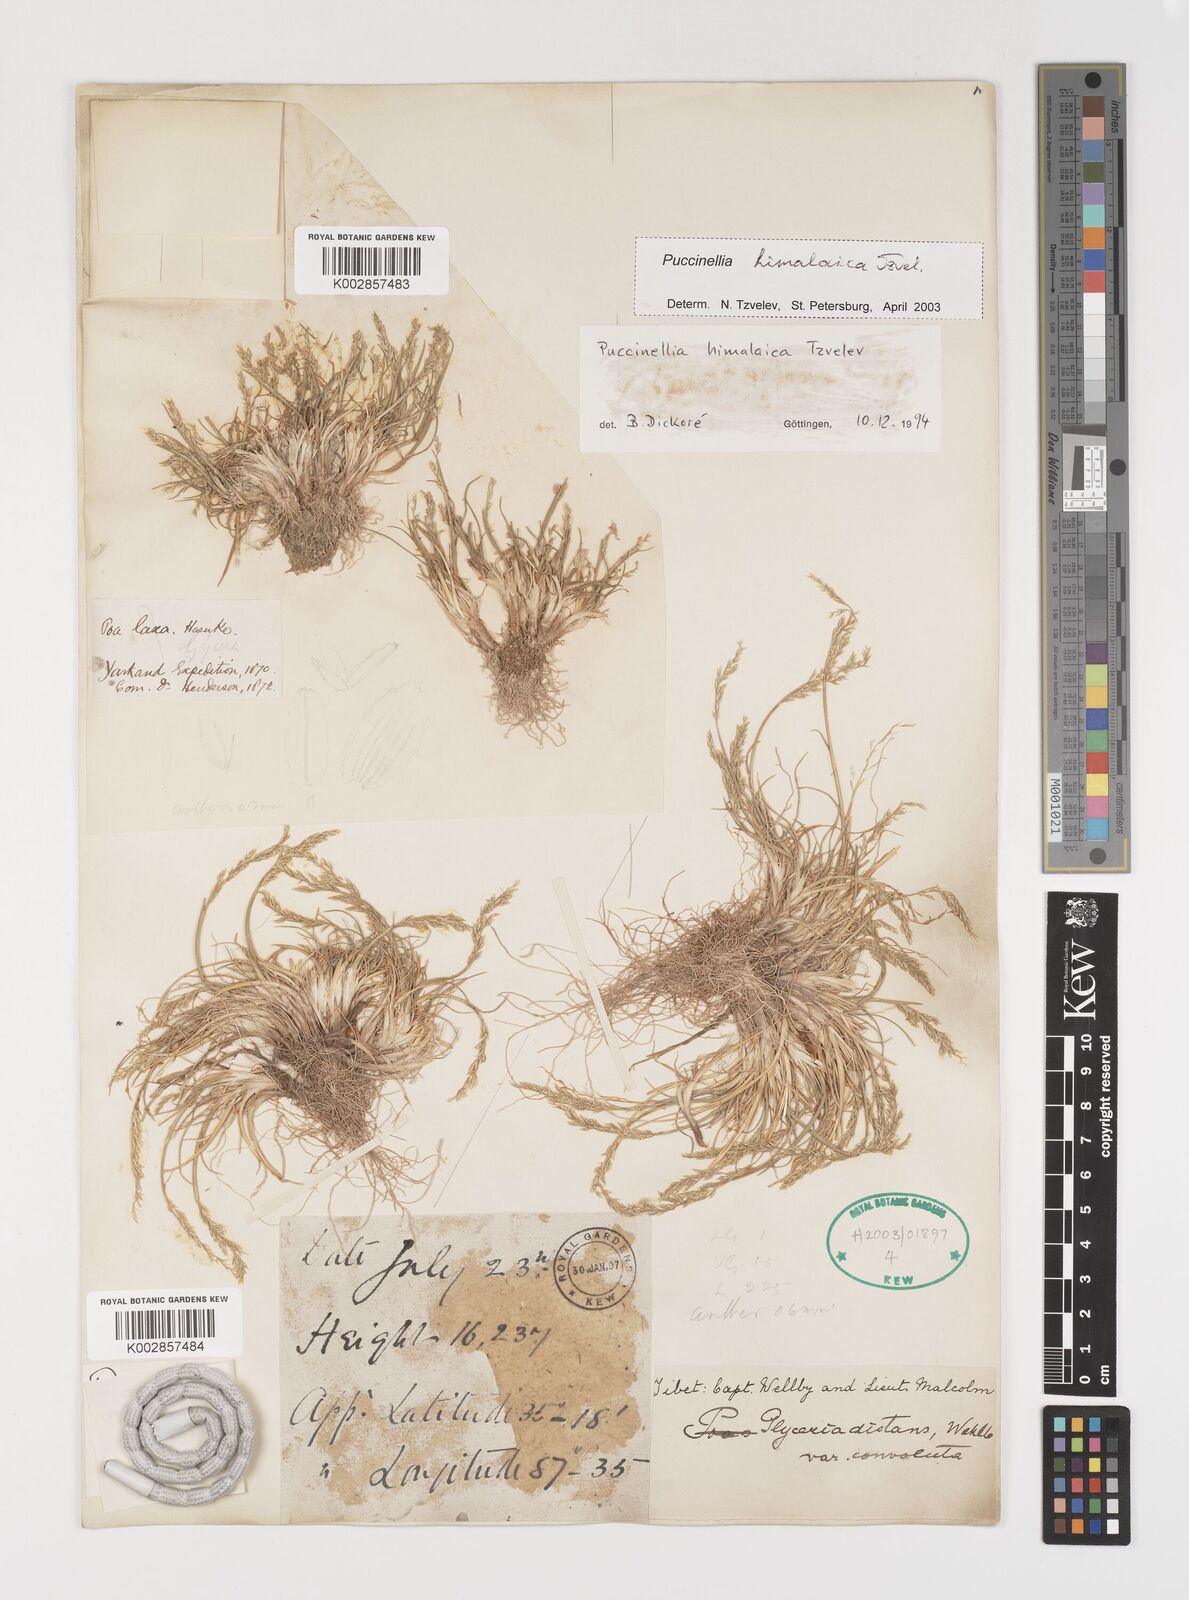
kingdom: Plantae
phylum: Tracheophyta
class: Liliopsida
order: Poales
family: Poaceae
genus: Puccinellia
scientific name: Puccinellia himalaica
